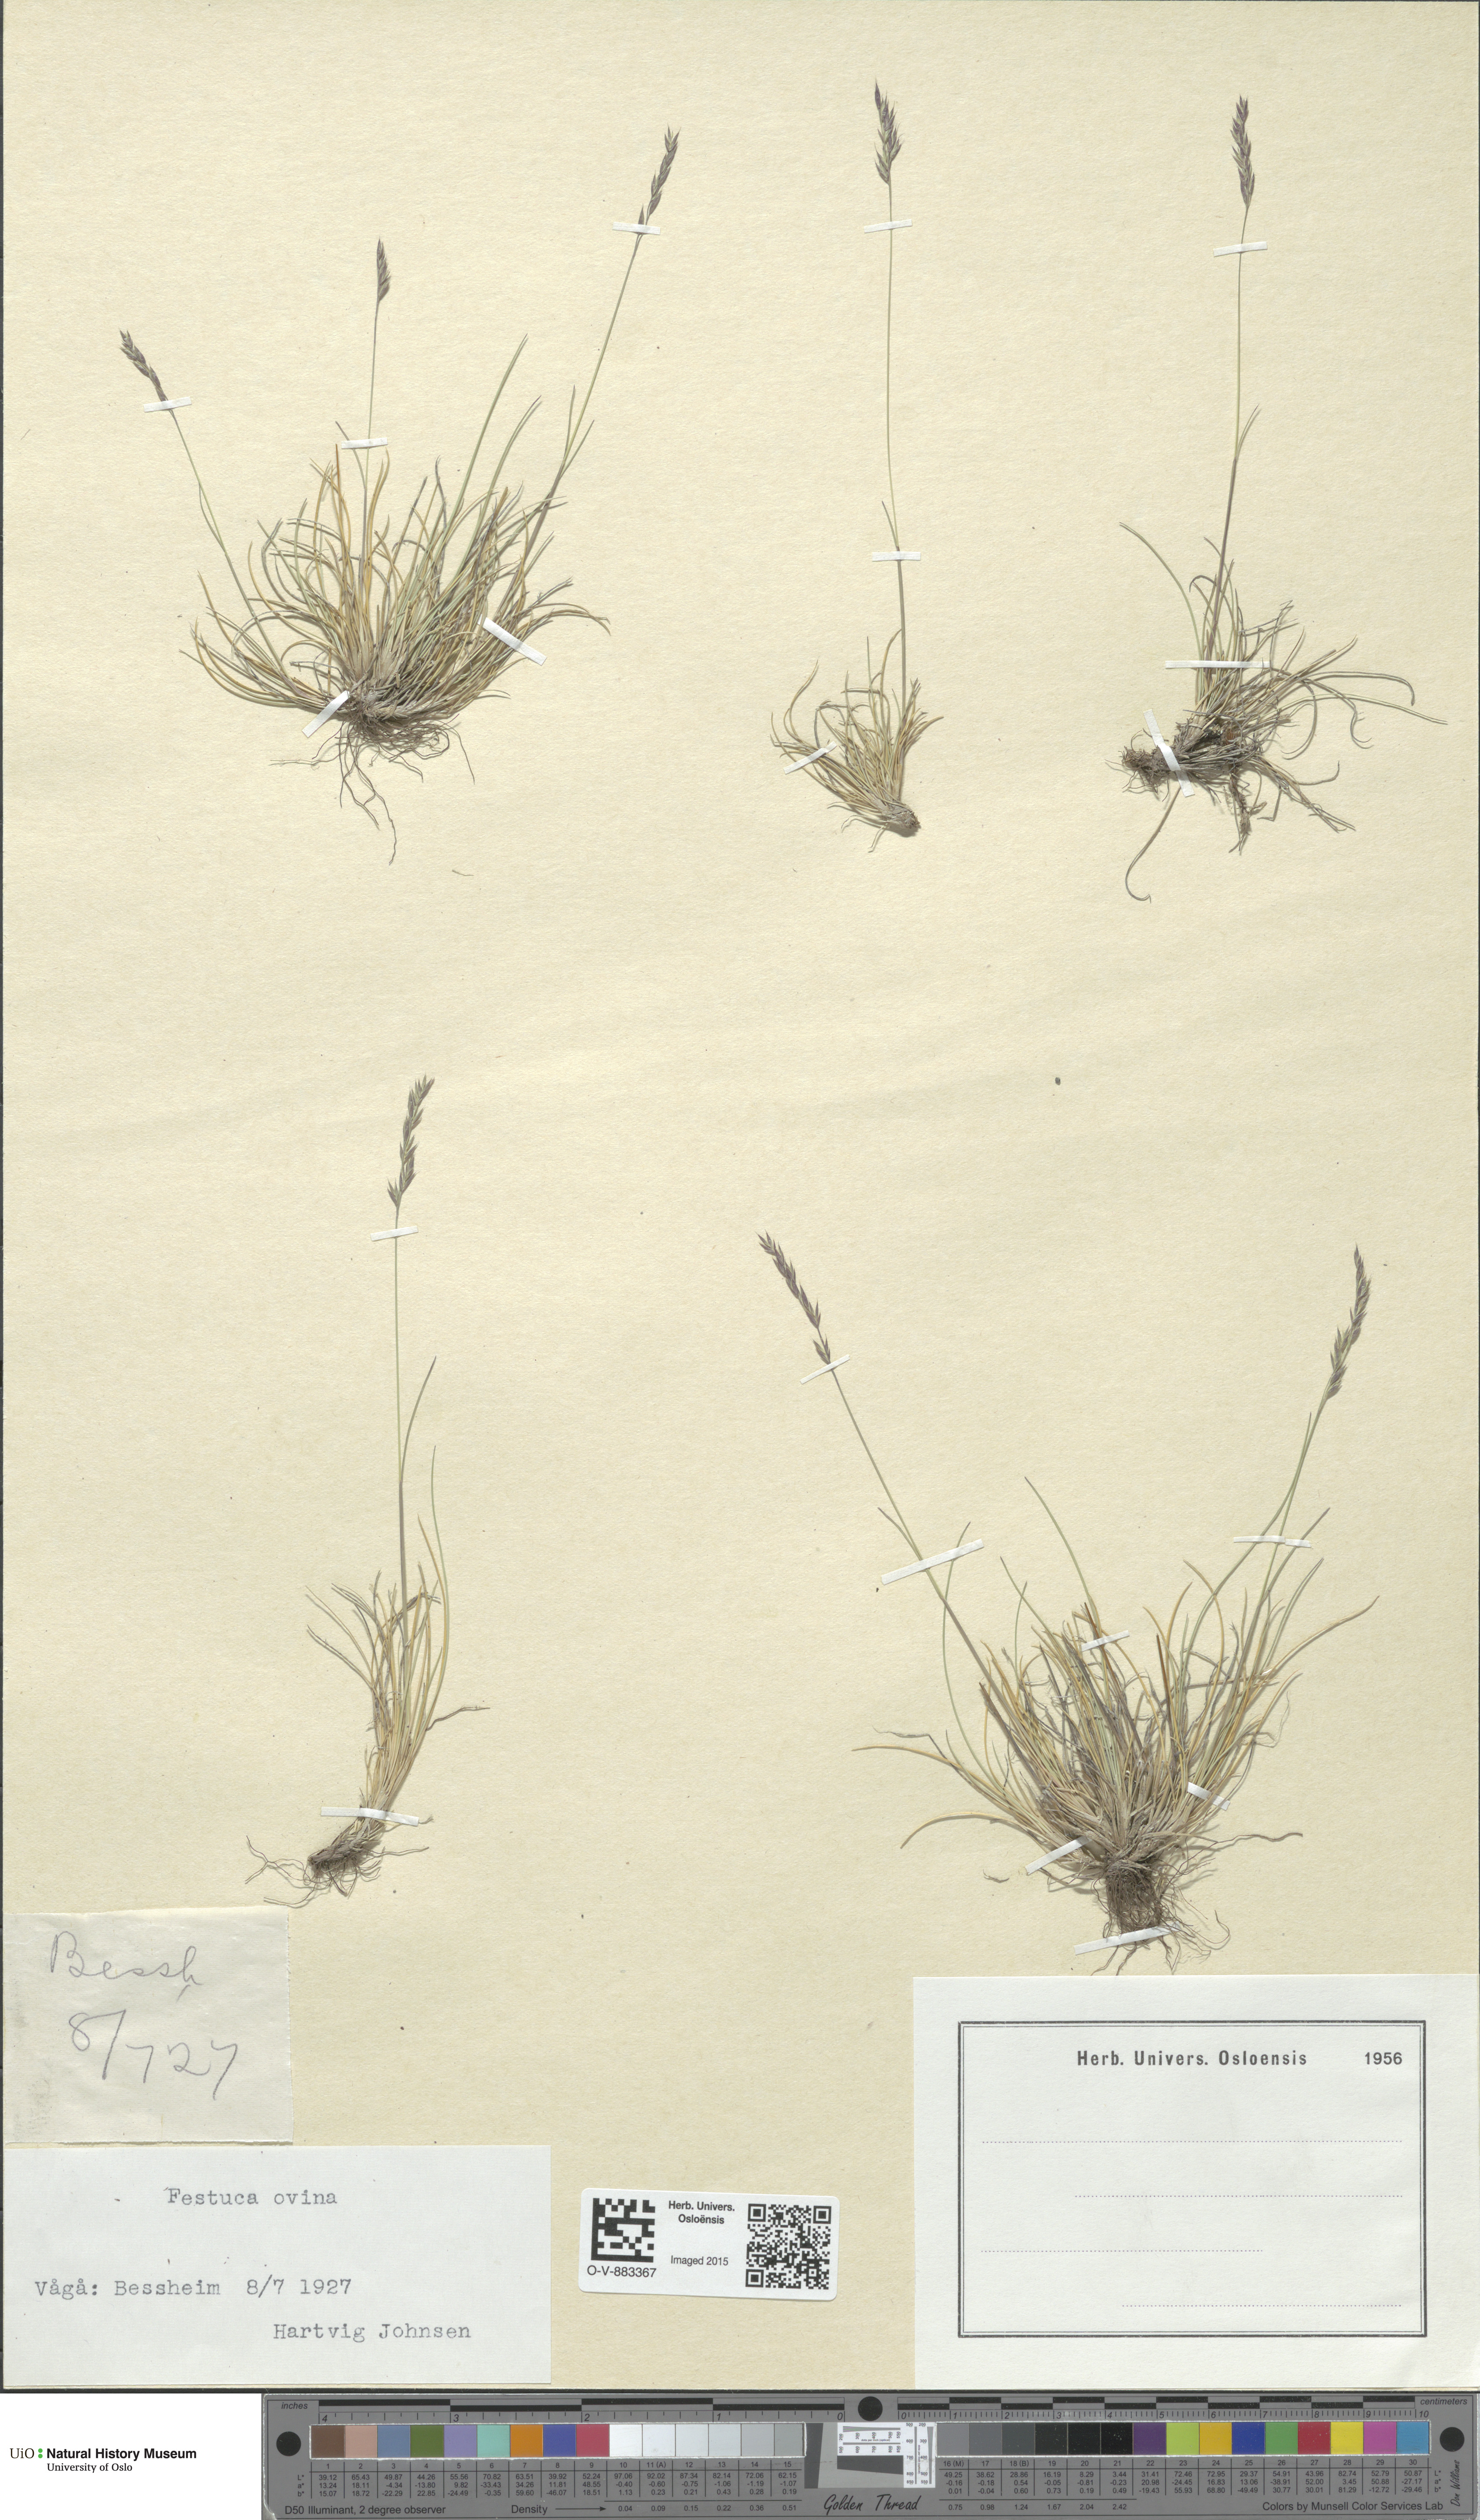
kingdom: Plantae
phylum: Tracheophyta
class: Liliopsida
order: Poales
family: Poaceae
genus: Festuca
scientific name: Festuca ovina
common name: Sheep fescue
